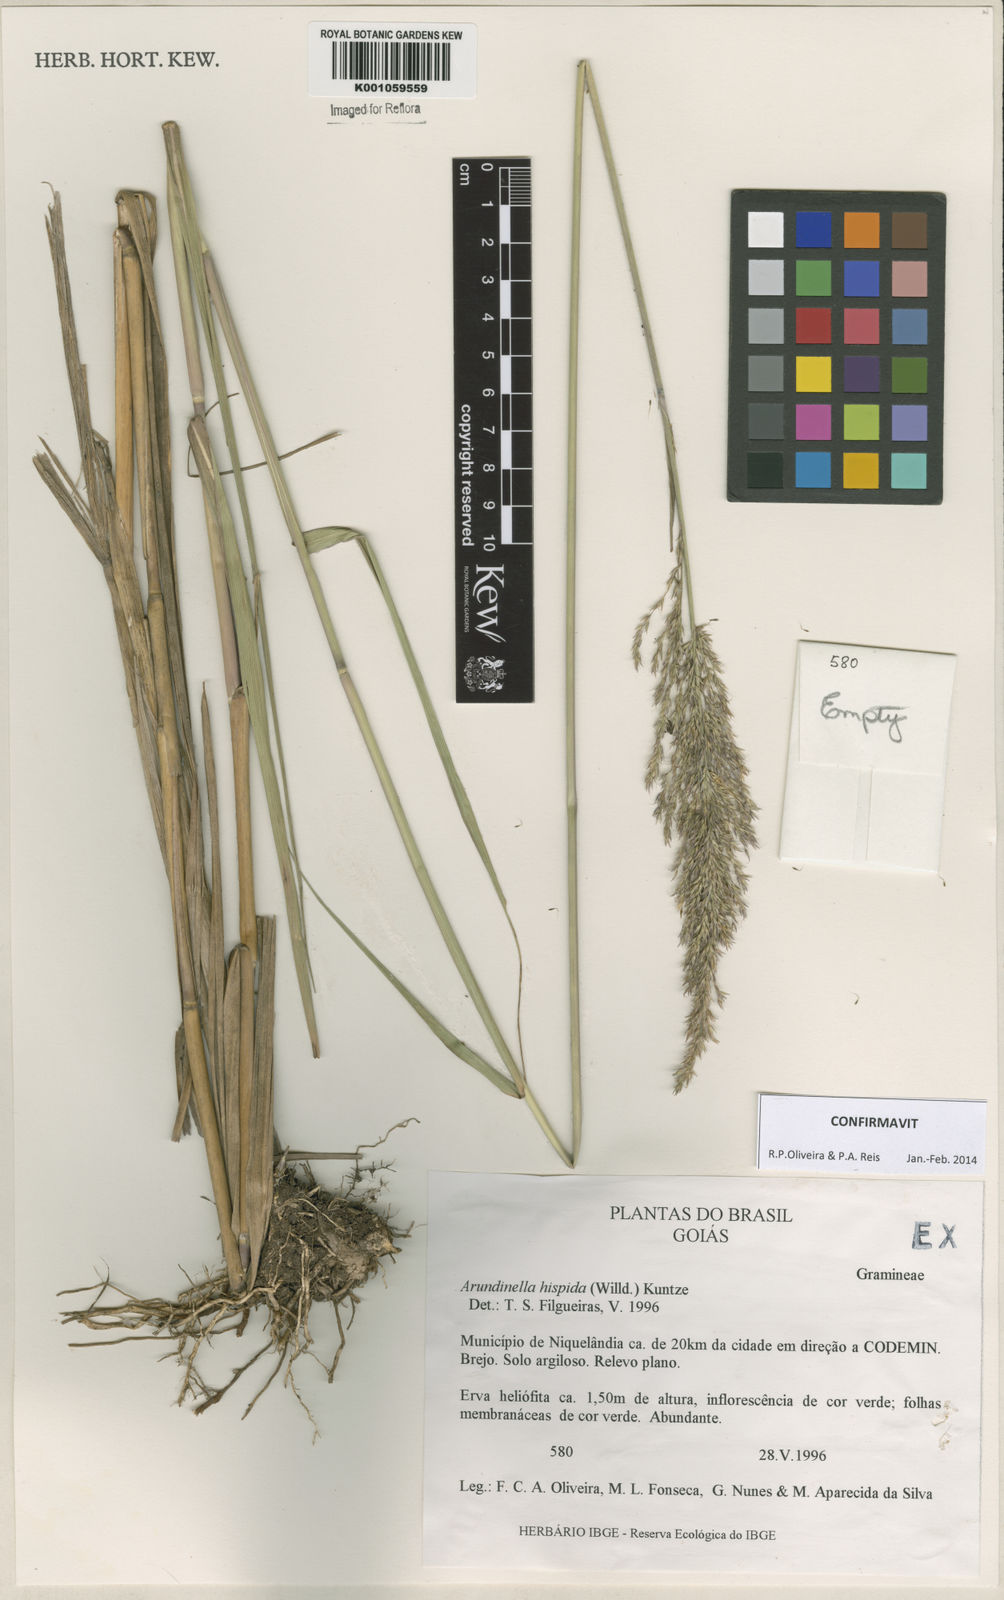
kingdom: Plantae
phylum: Tracheophyta
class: Liliopsida
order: Poales
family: Poaceae
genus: Arundinella
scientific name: Arundinella hispida
